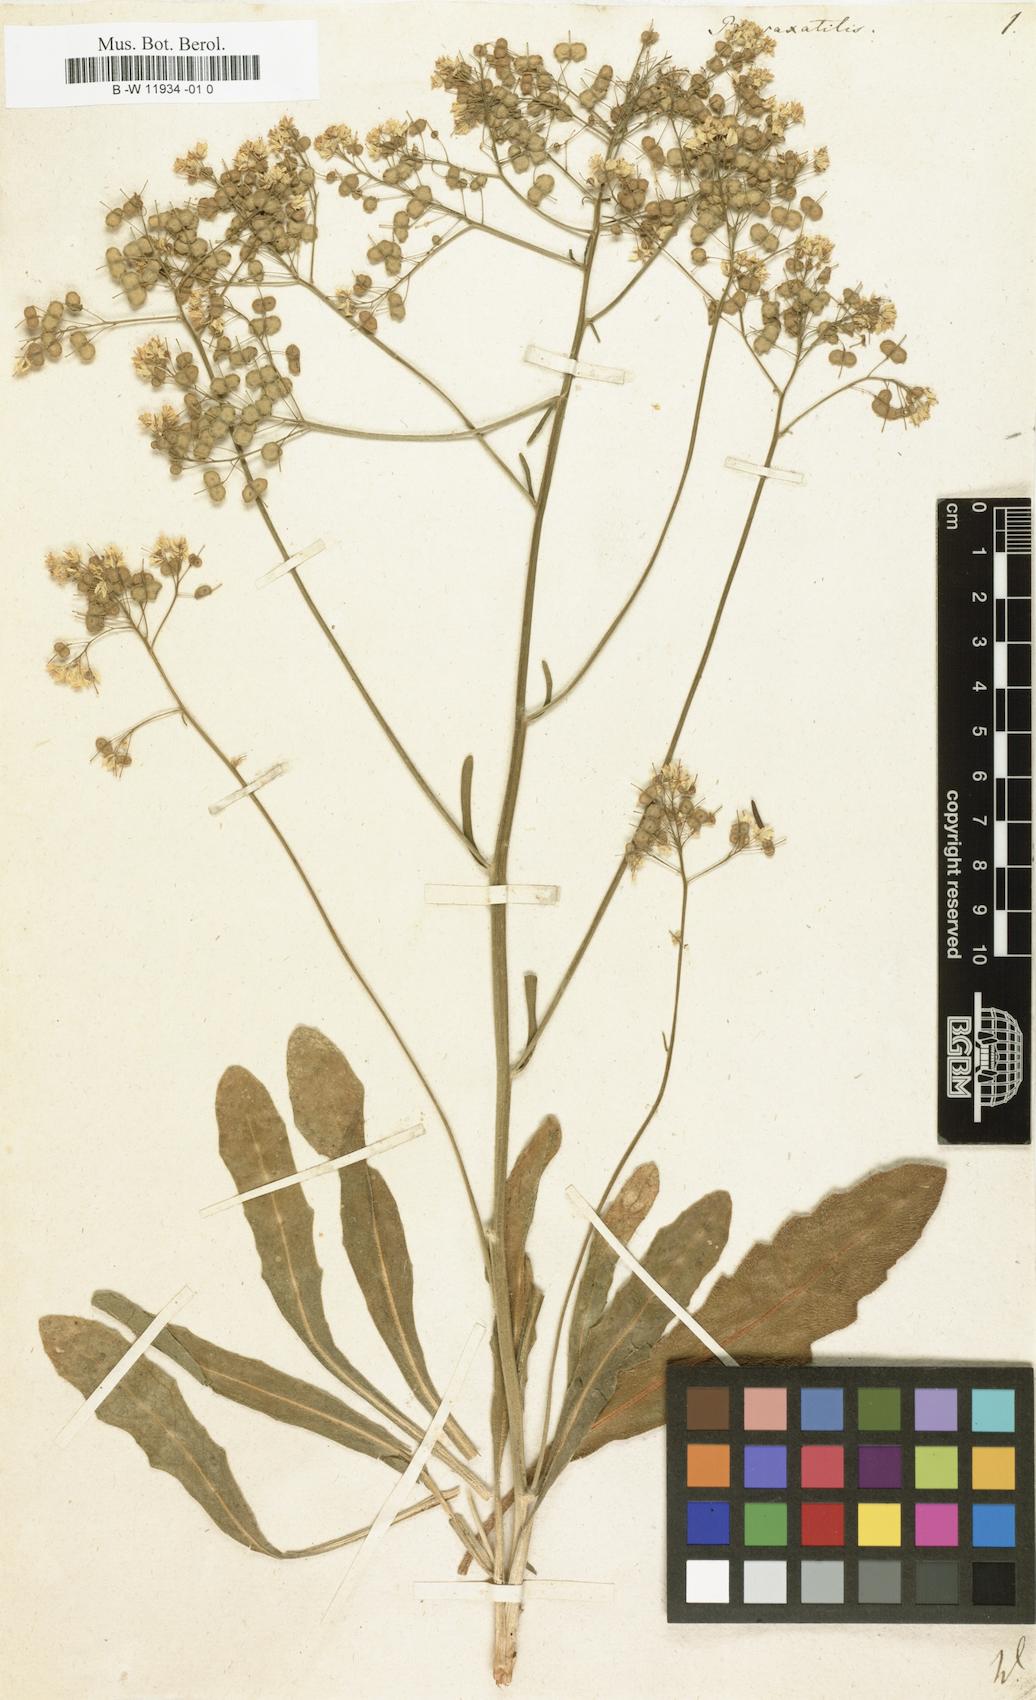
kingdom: Plantae
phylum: Tracheophyta
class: Magnoliopsida
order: Brassicales
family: Brassicaceae
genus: Biscutella
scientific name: Biscutella
